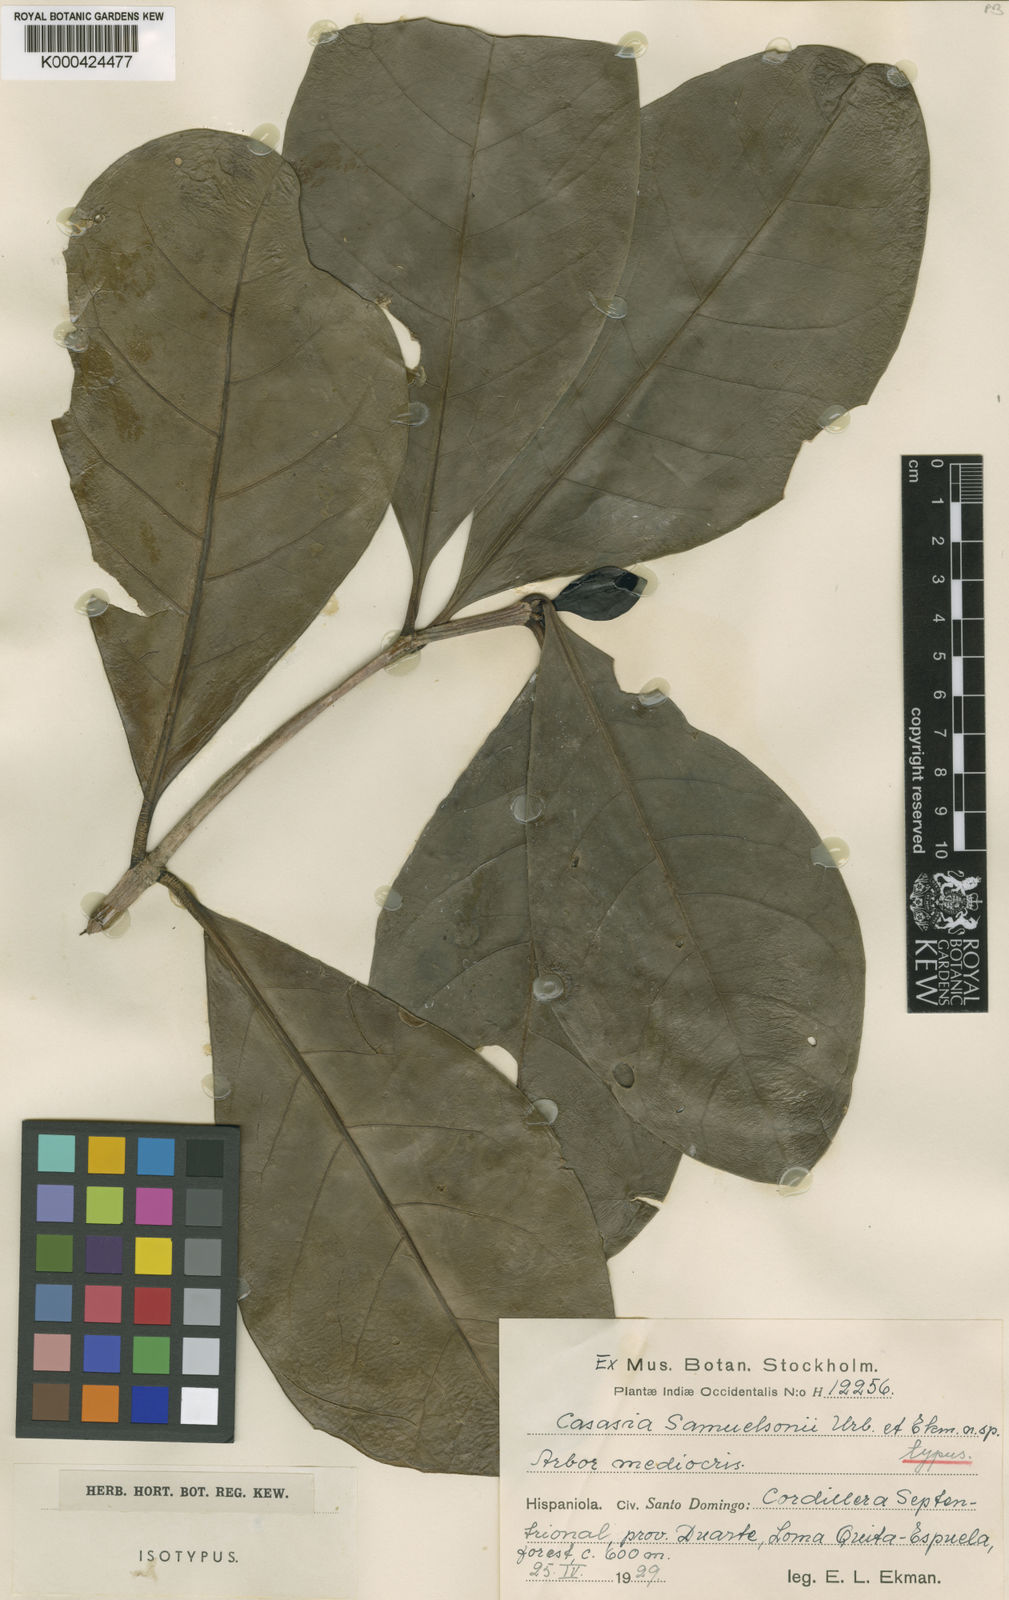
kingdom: Plantae
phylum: Tracheophyta
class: Magnoliopsida
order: Gentianales
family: Rubiaceae
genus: Casasia
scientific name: Casasia samuelssonii
